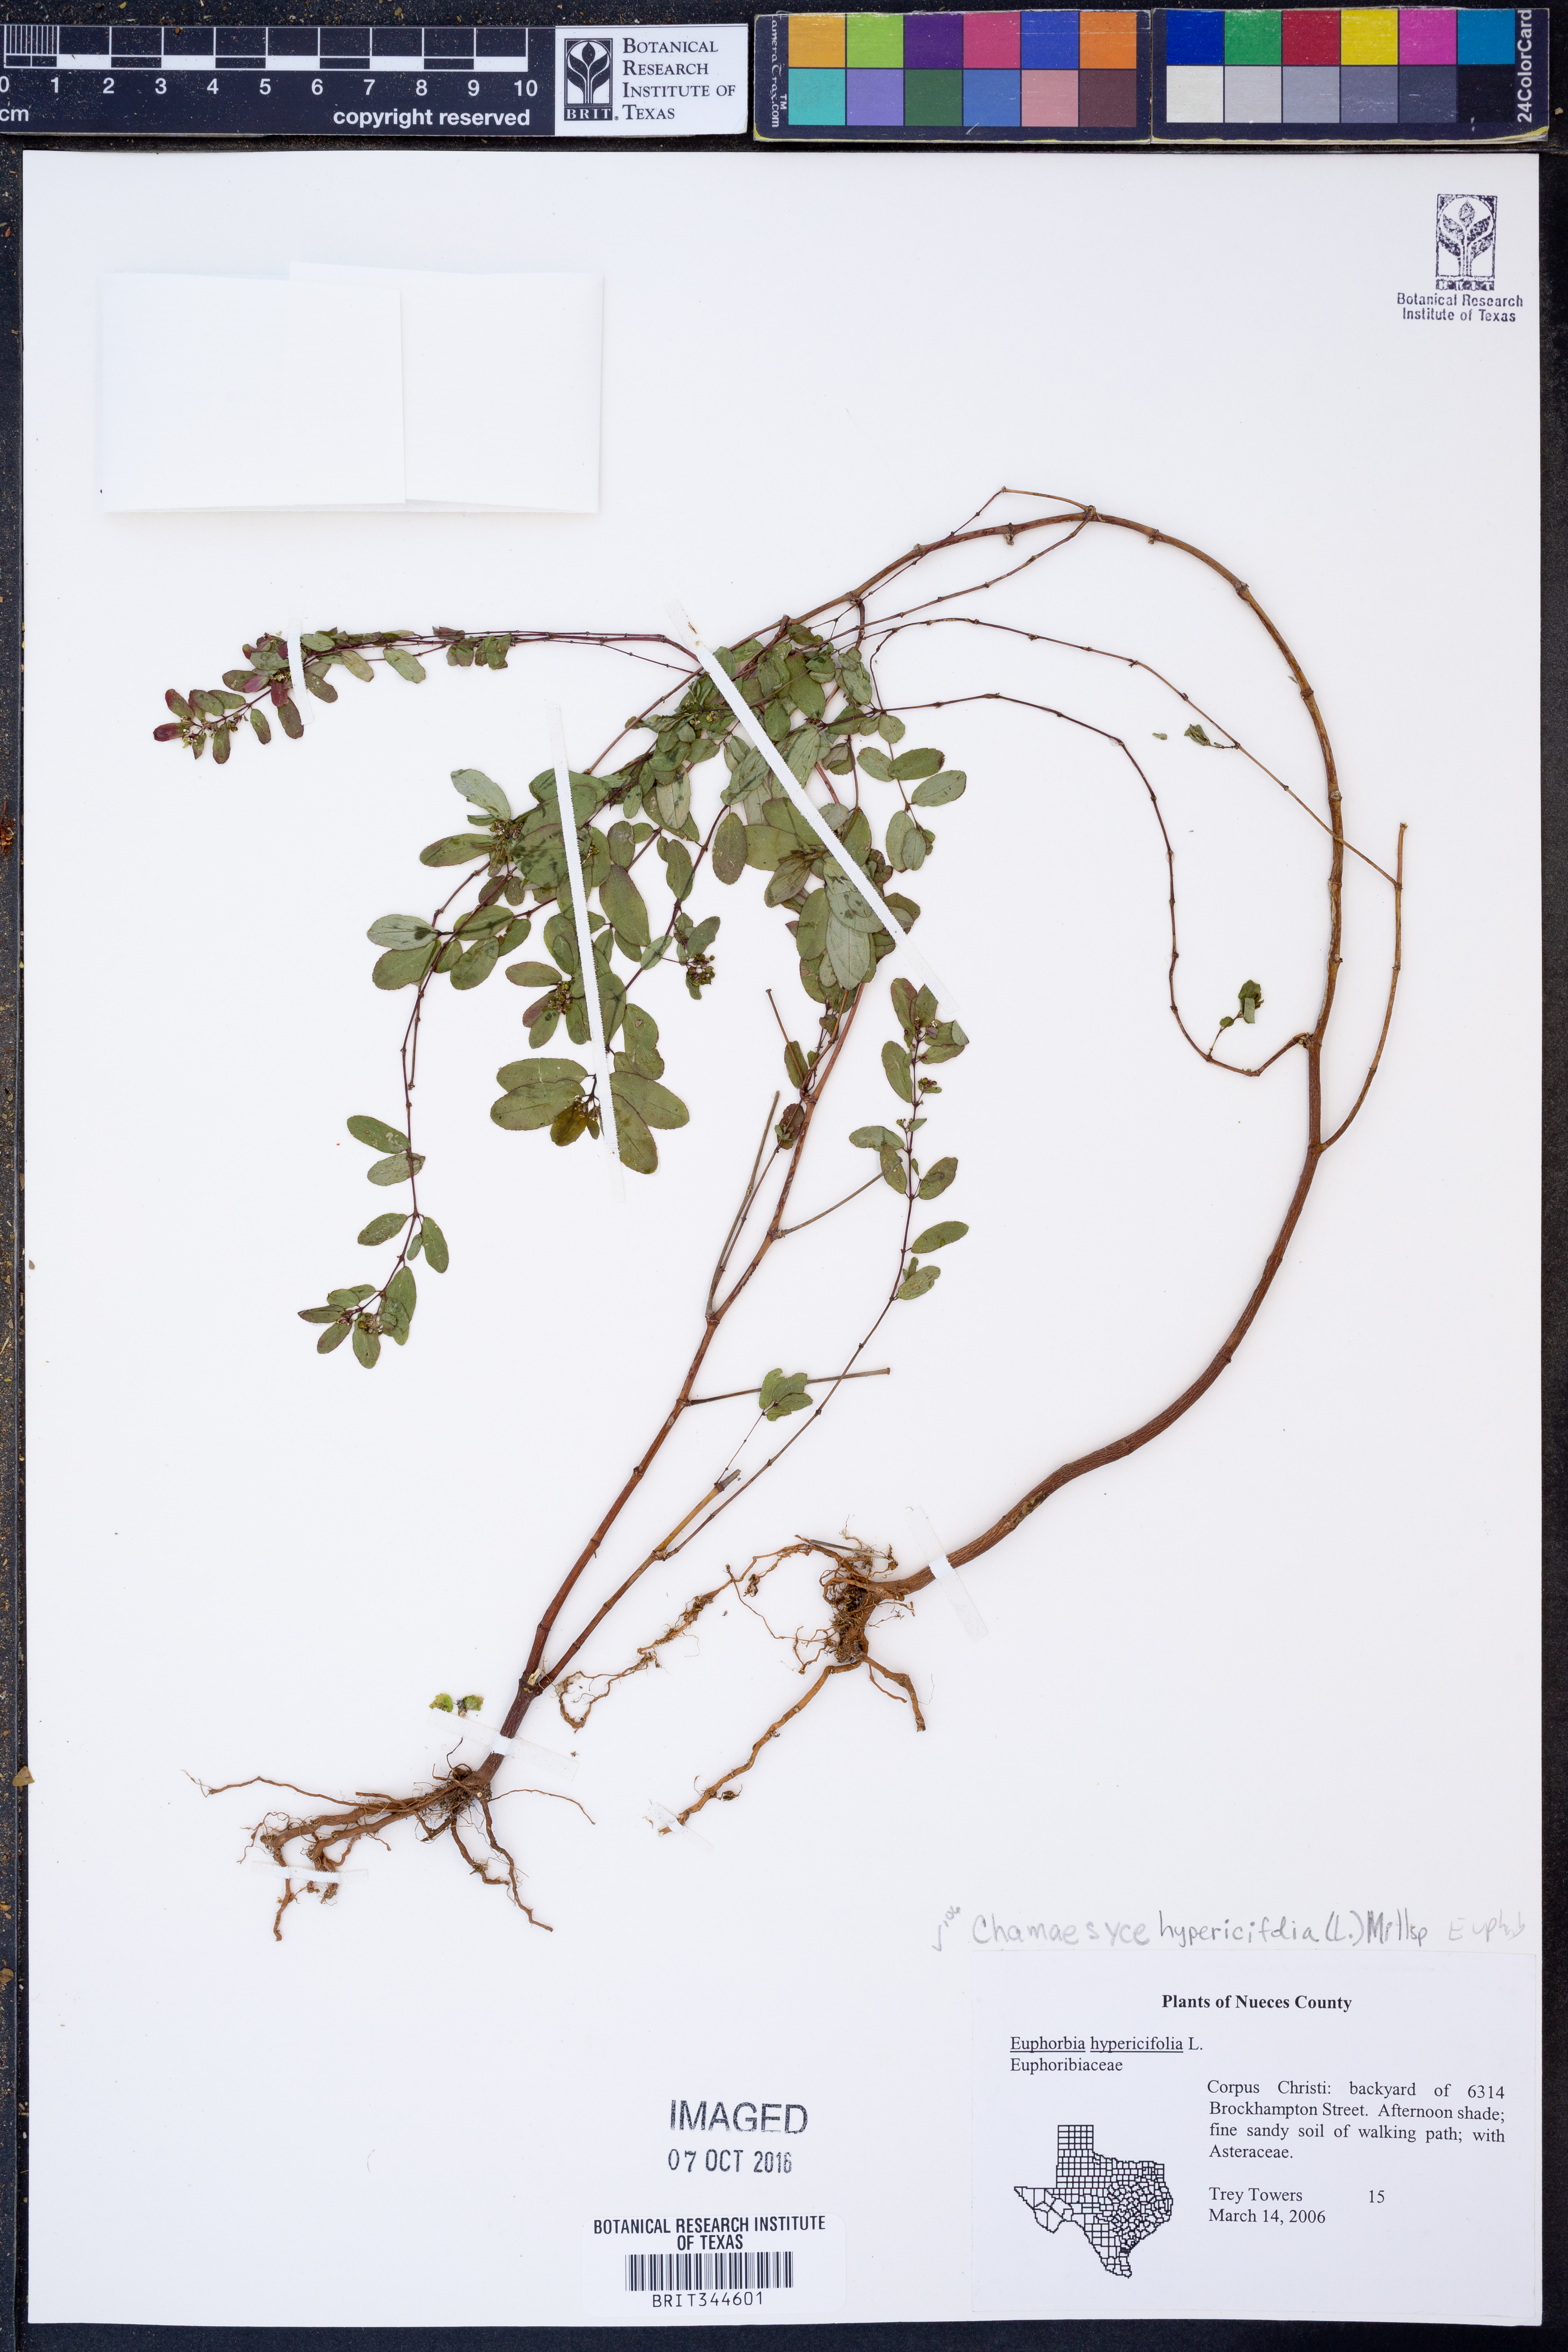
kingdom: Plantae
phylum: Tracheophyta
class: Magnoliopsida
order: Malpighiales
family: Euphorbiaceae
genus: Euphorbia
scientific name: Euphorbia hypericifolia
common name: Graceful sandmat
